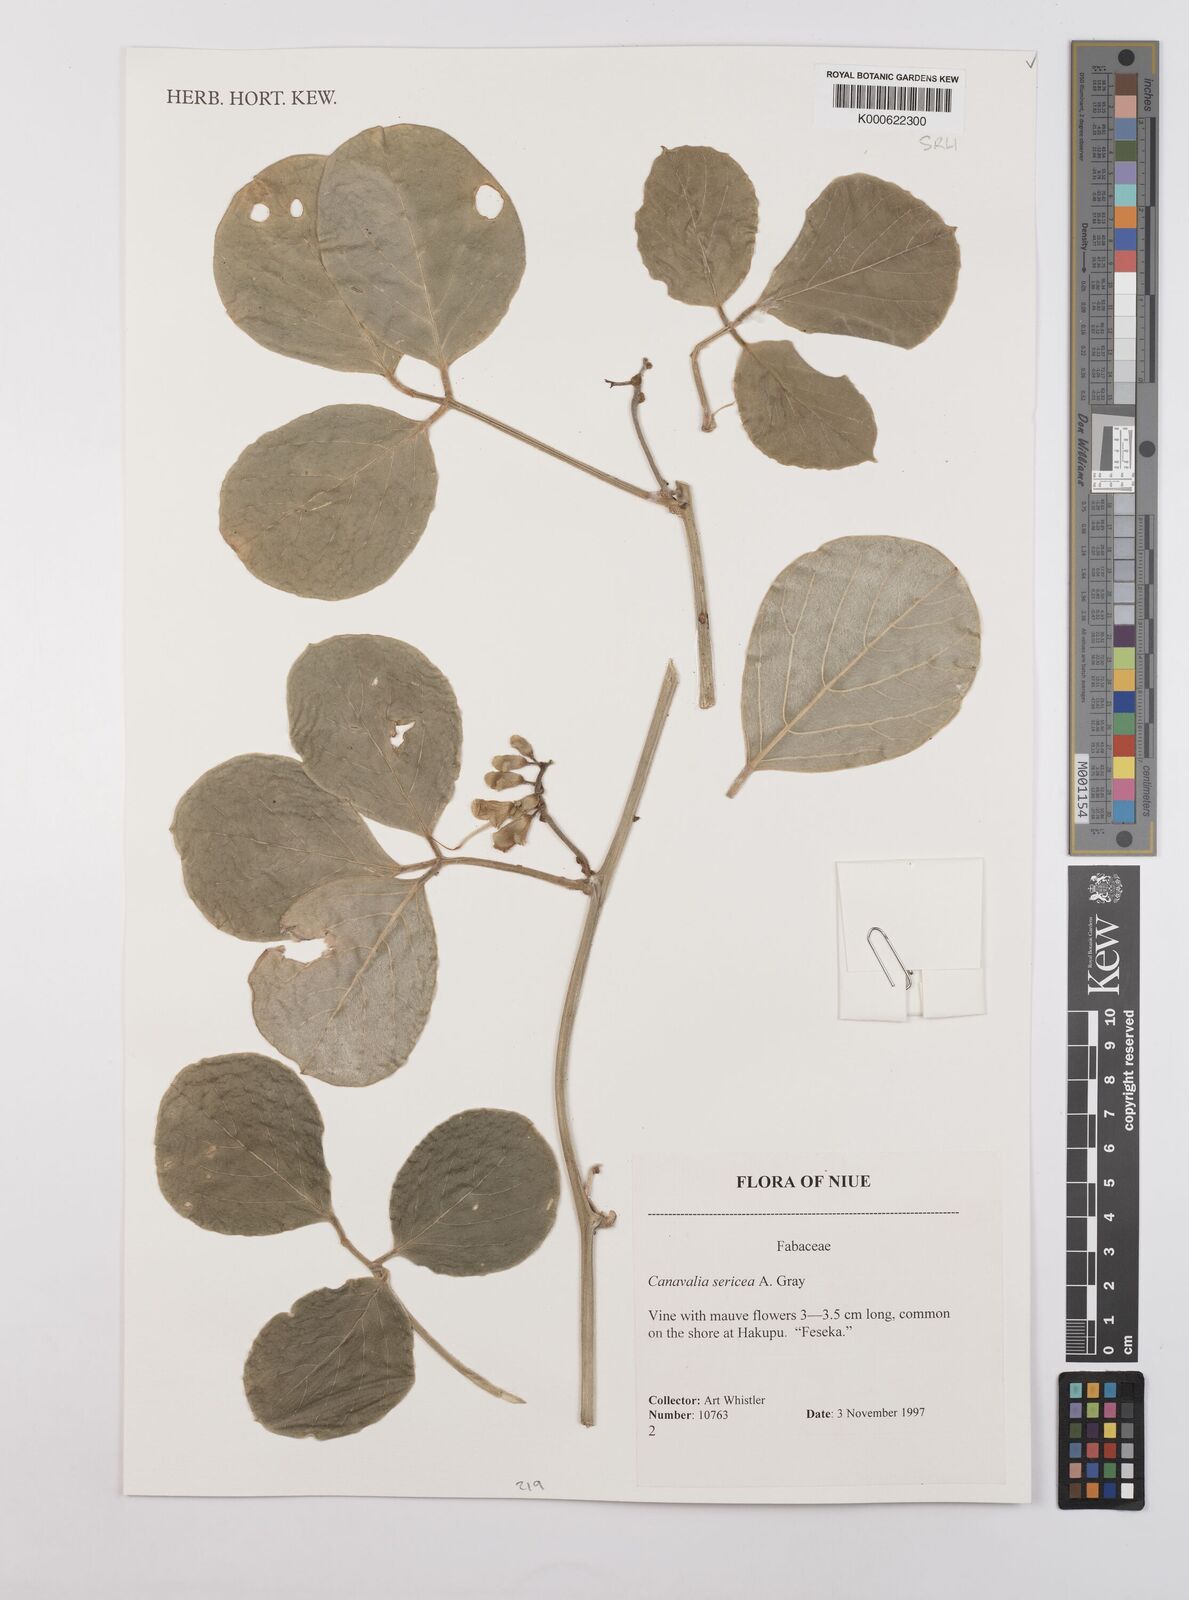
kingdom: Plantae
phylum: Tracheophyta
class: Magnoliopsida
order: Fabales
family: Fabaceae
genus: Canavalia
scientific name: Canavalia sericea
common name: Silky jackbean
